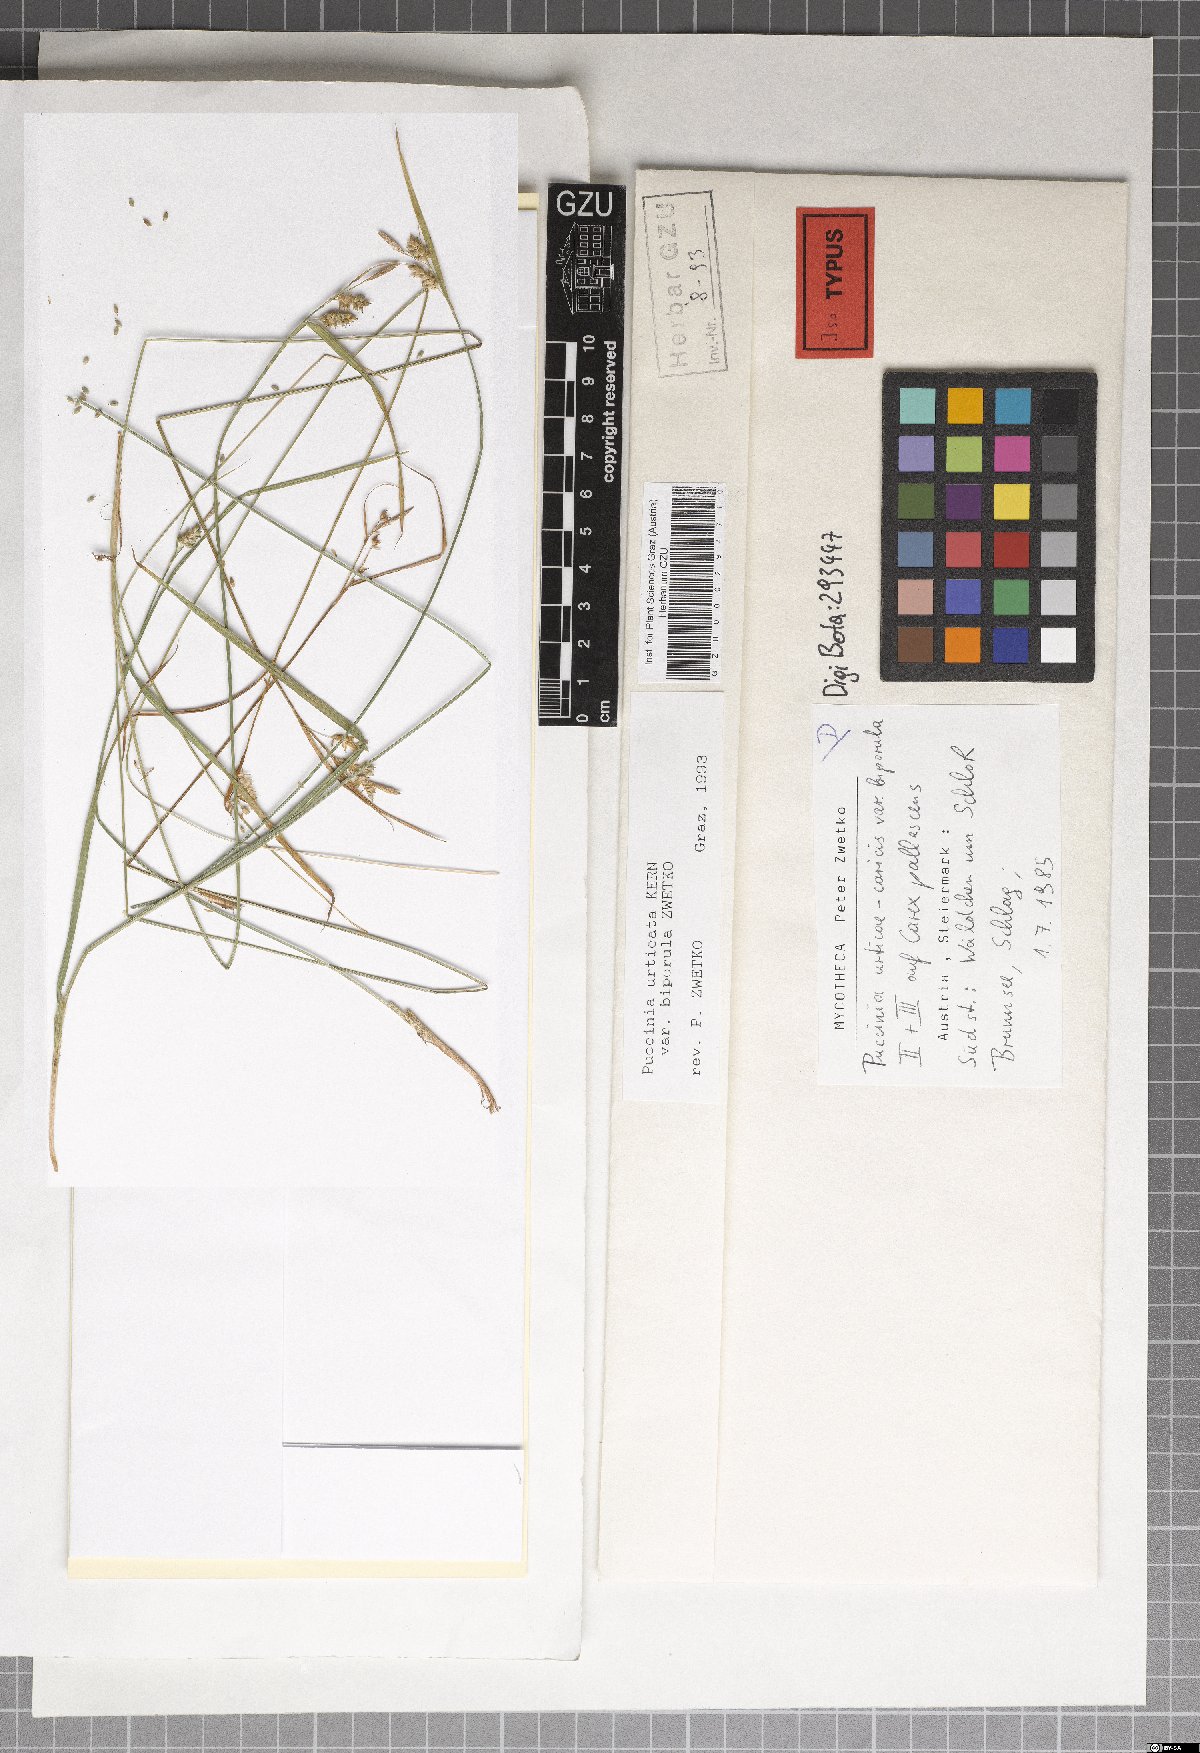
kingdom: Fungi
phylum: Basidiomycota
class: Pucciniomycetes
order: Pucciniales
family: Pucciniaceae
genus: Puccinia
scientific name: Puccinia biporospora
